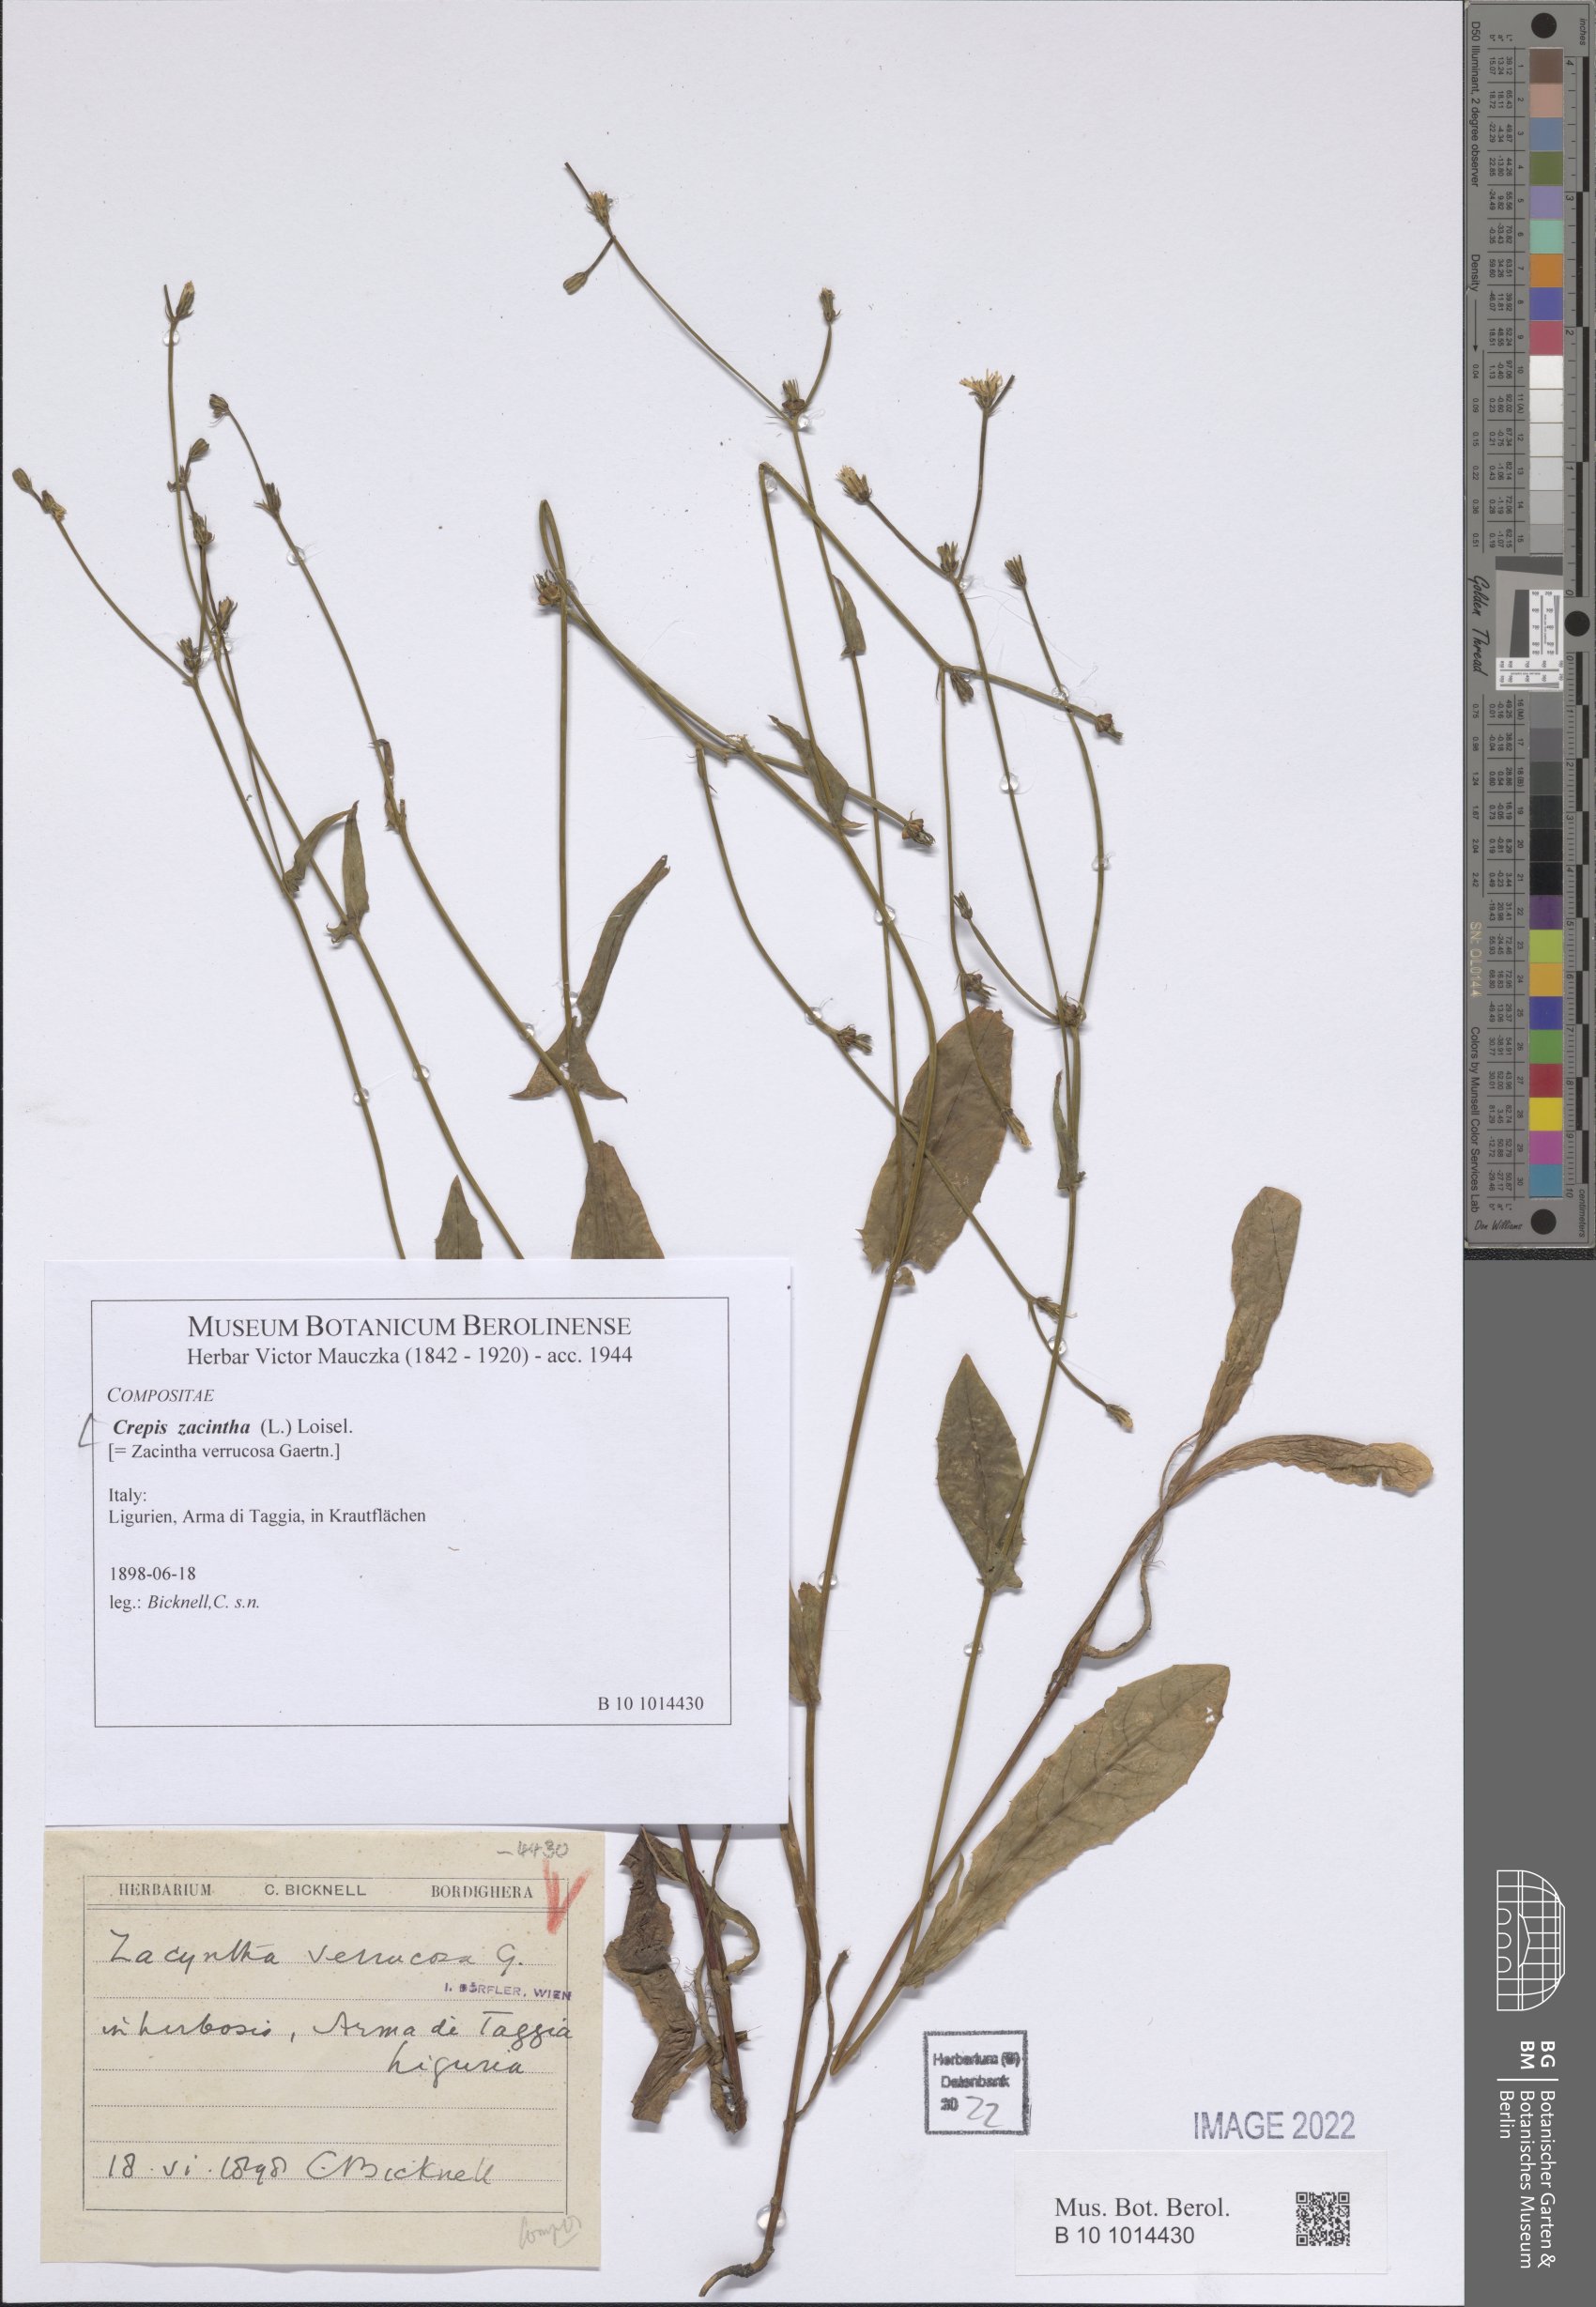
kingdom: Plantae
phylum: Tracheophyta
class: Magnoliopsida
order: Asterales
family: Asteraceae
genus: Crepis
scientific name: Crepis zacintha
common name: Striped hawksbeard
